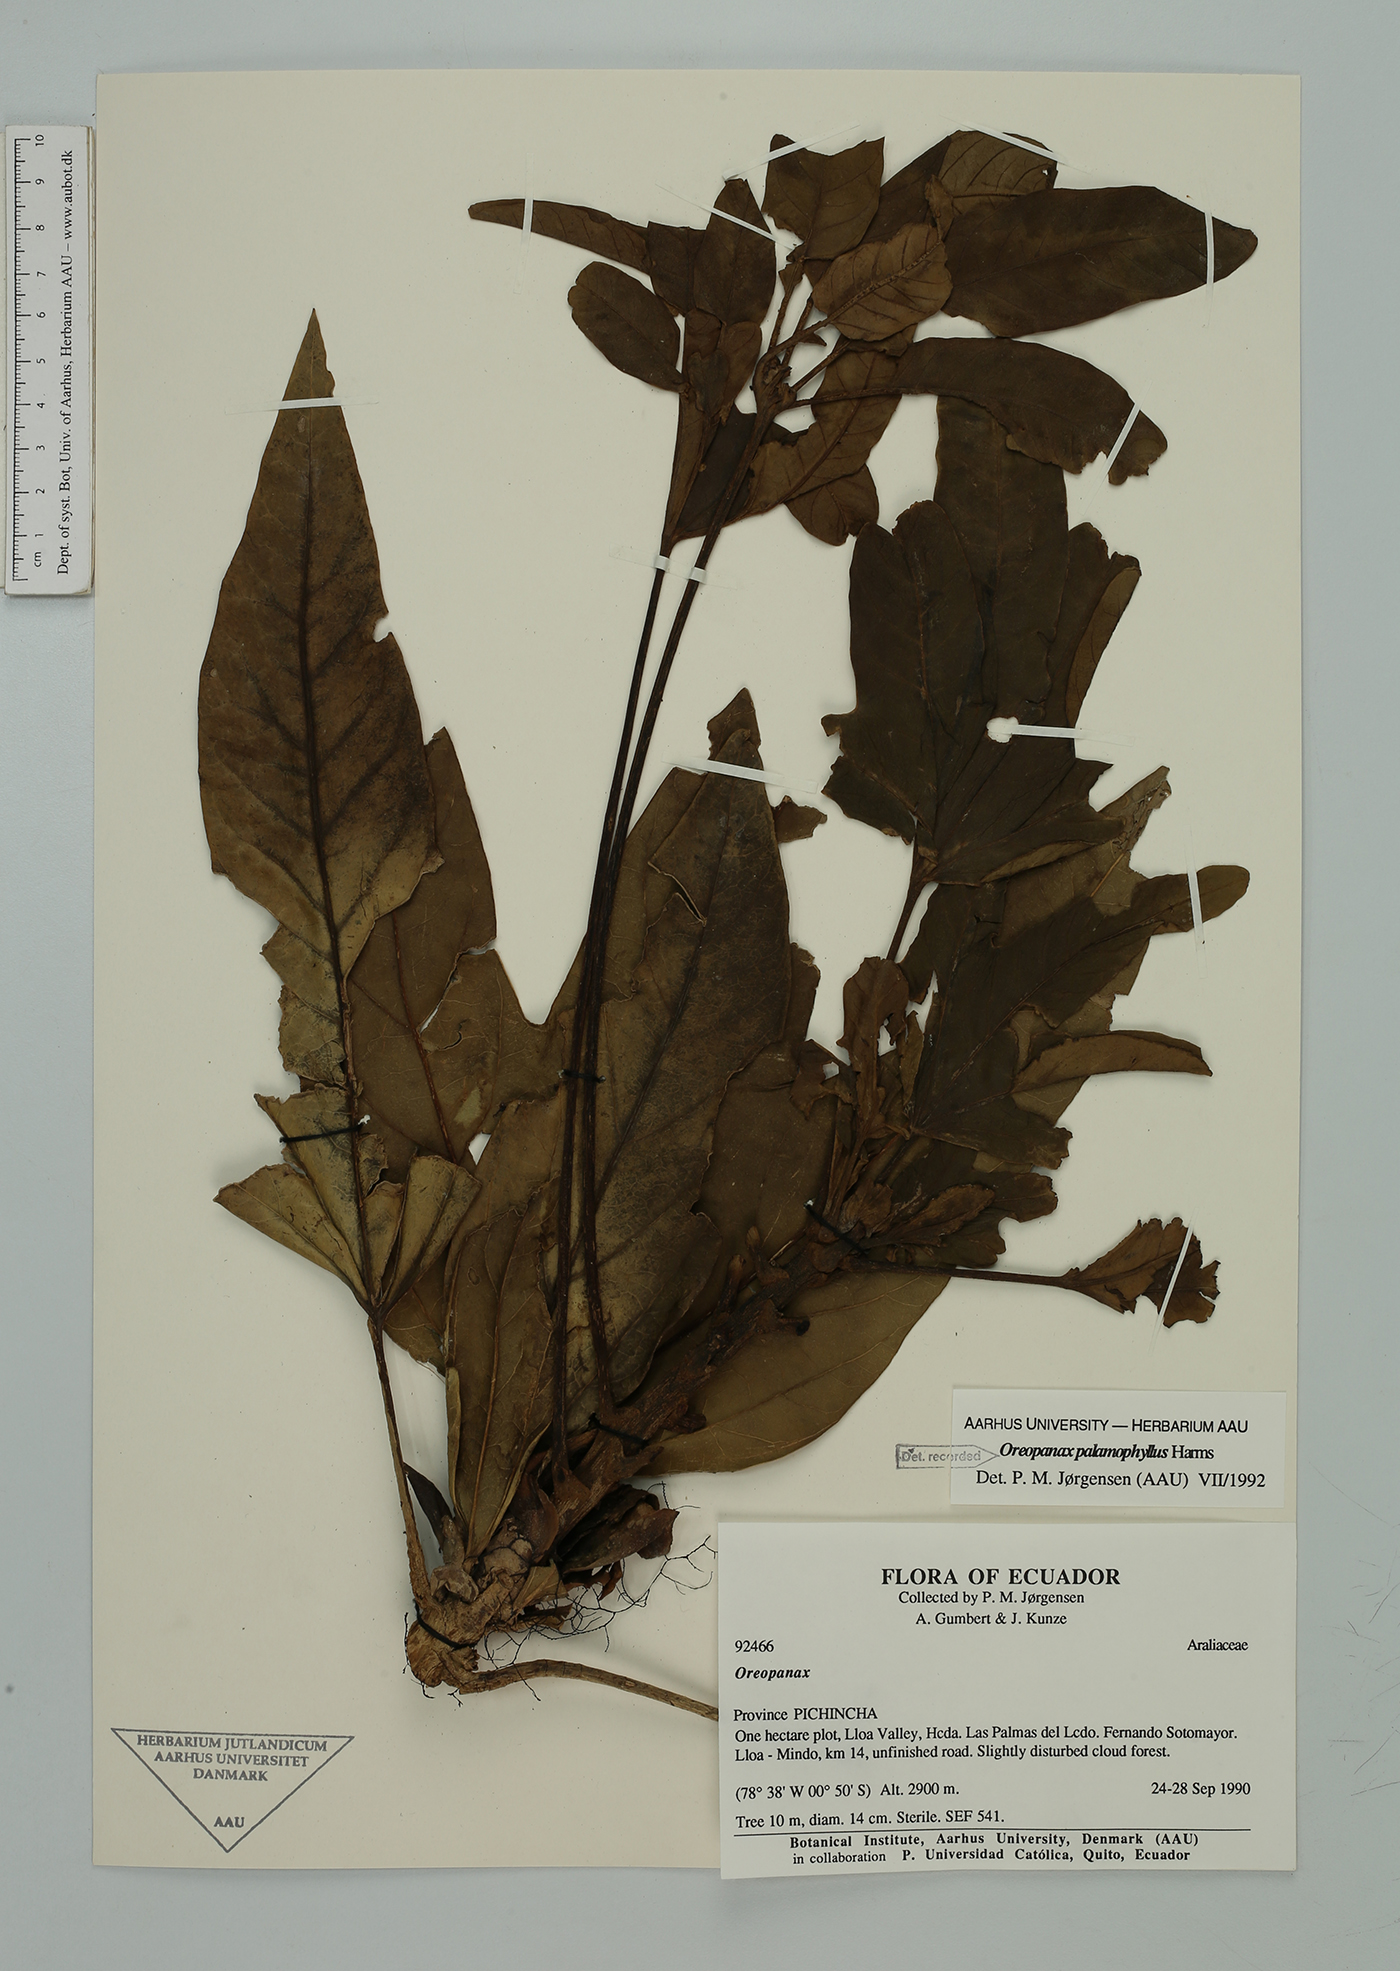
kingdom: Plantae
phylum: Tracheophyta
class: Magnoliopsida
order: Apiales
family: Araliaceae
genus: Oreopanax
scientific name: Oreopanax palamophyllus
